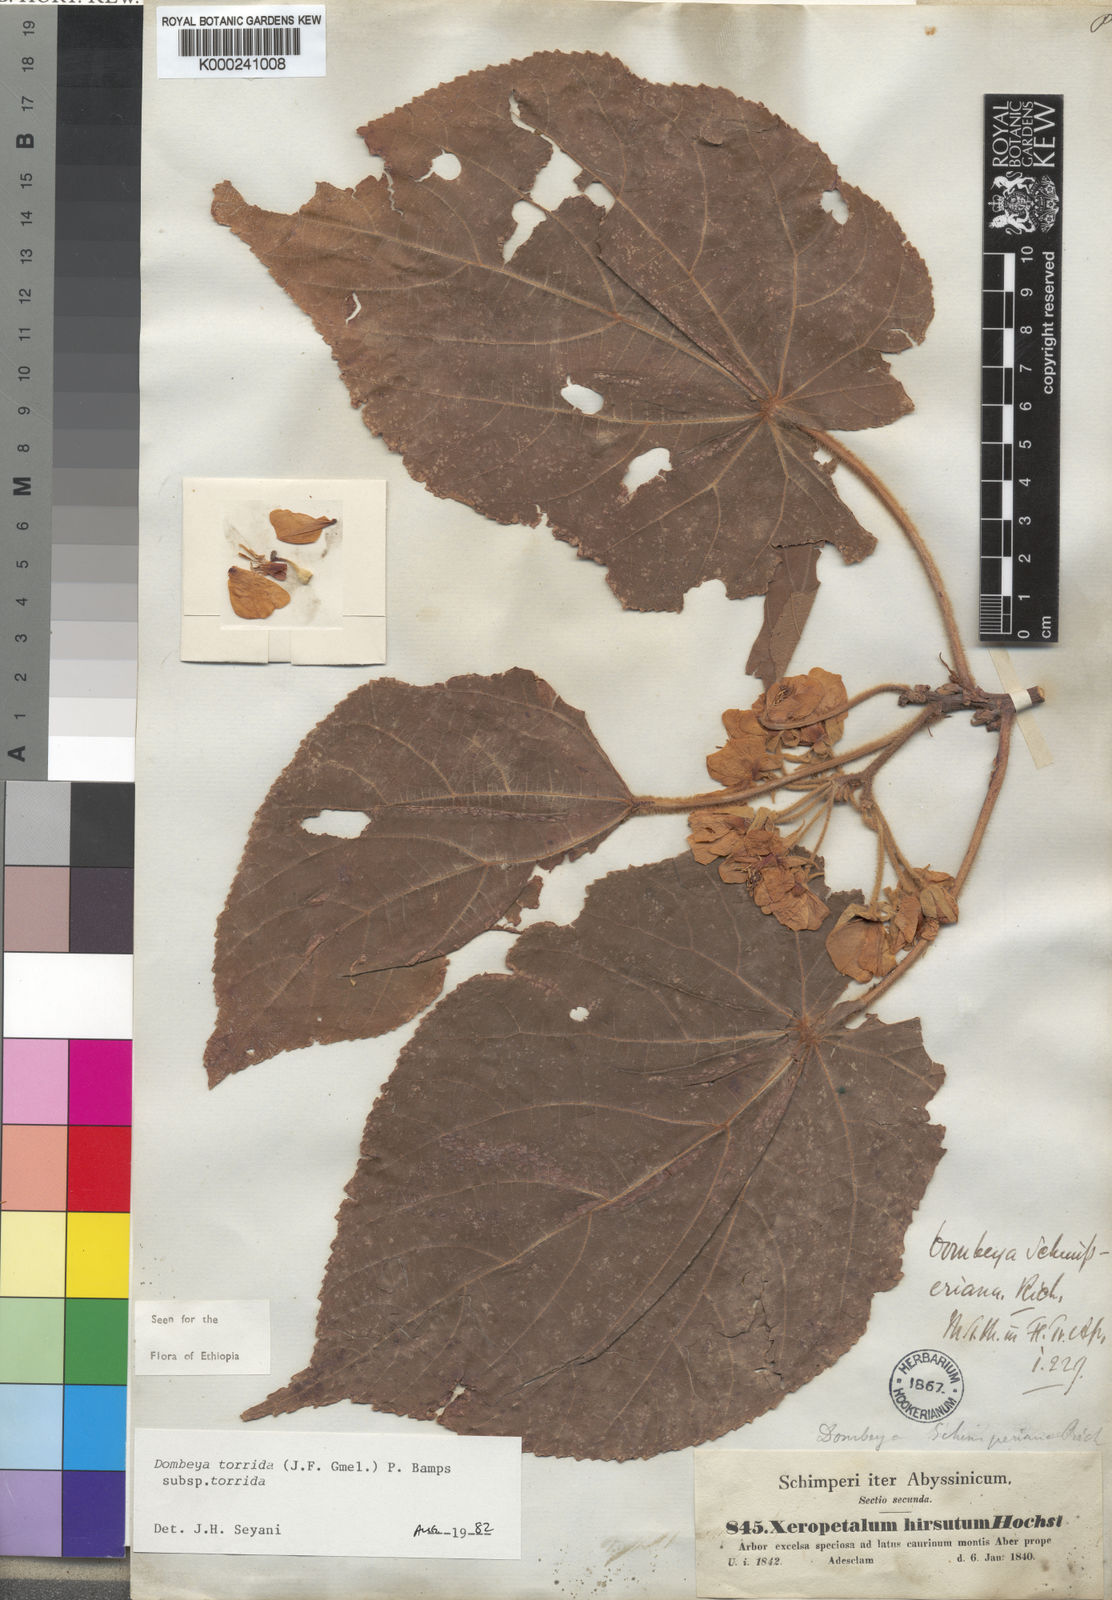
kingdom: Plantae
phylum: Tracheophyta
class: Magnoliopsida
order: Malvales
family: Malvaceae
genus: Dombeya
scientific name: Dombeya torrida
